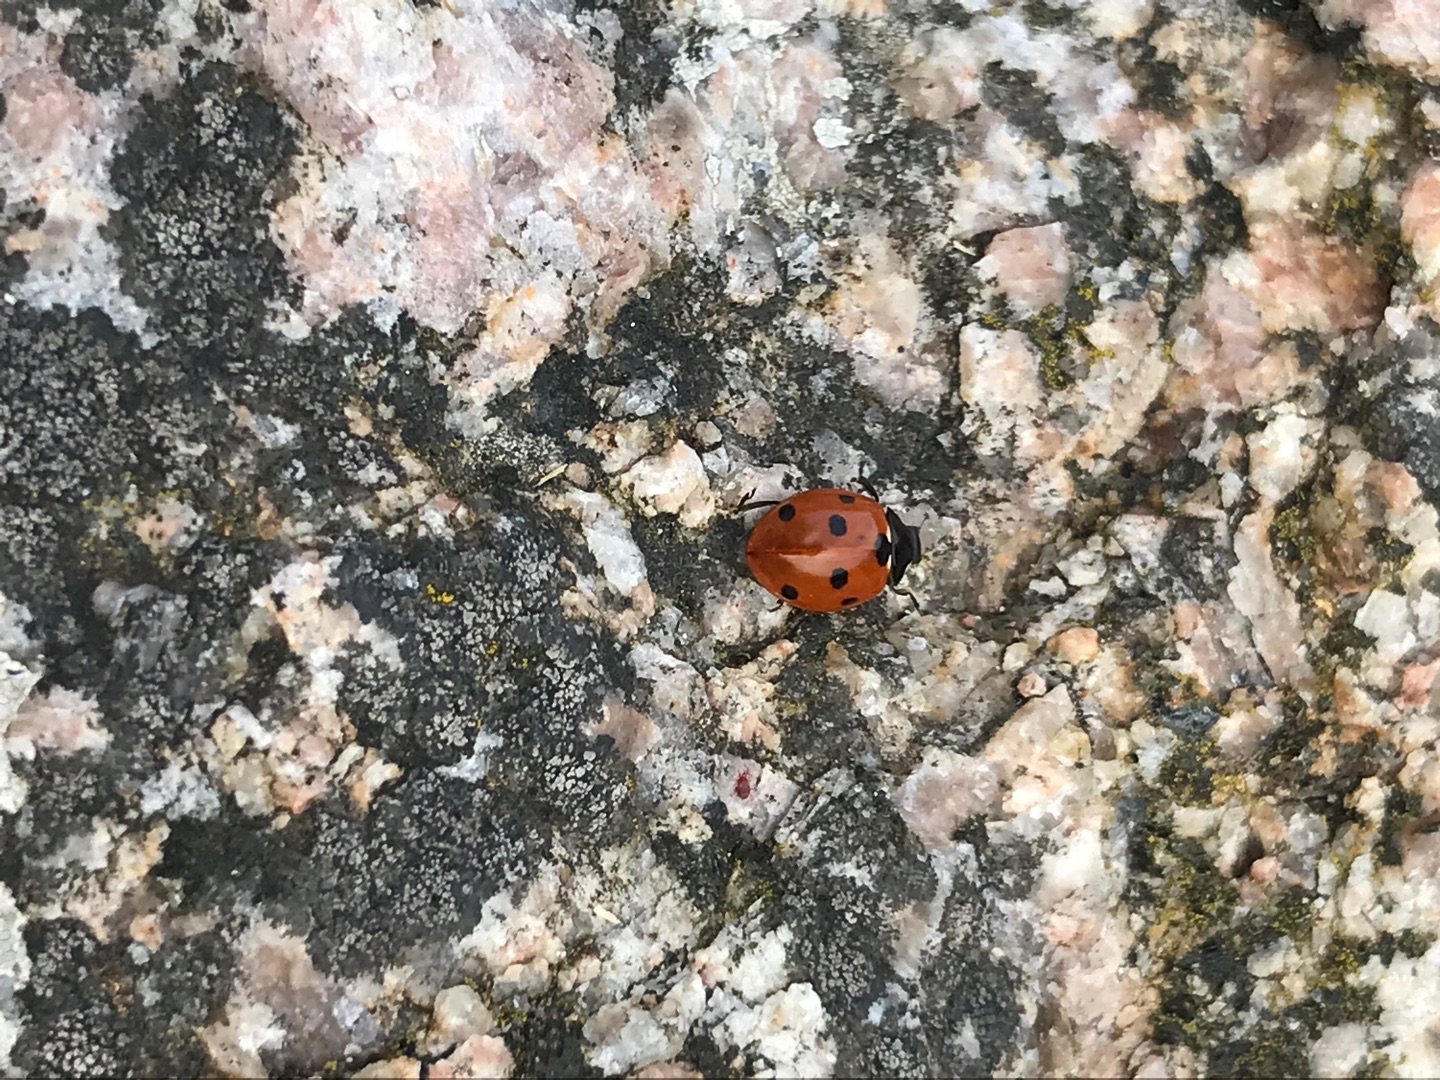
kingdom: Animalia
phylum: Arthropoda
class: Insecta
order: Coleoptera
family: Coccinellidae
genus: Coccinella
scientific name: Coccinella septempunctata
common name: Syvplettet mariehøne
